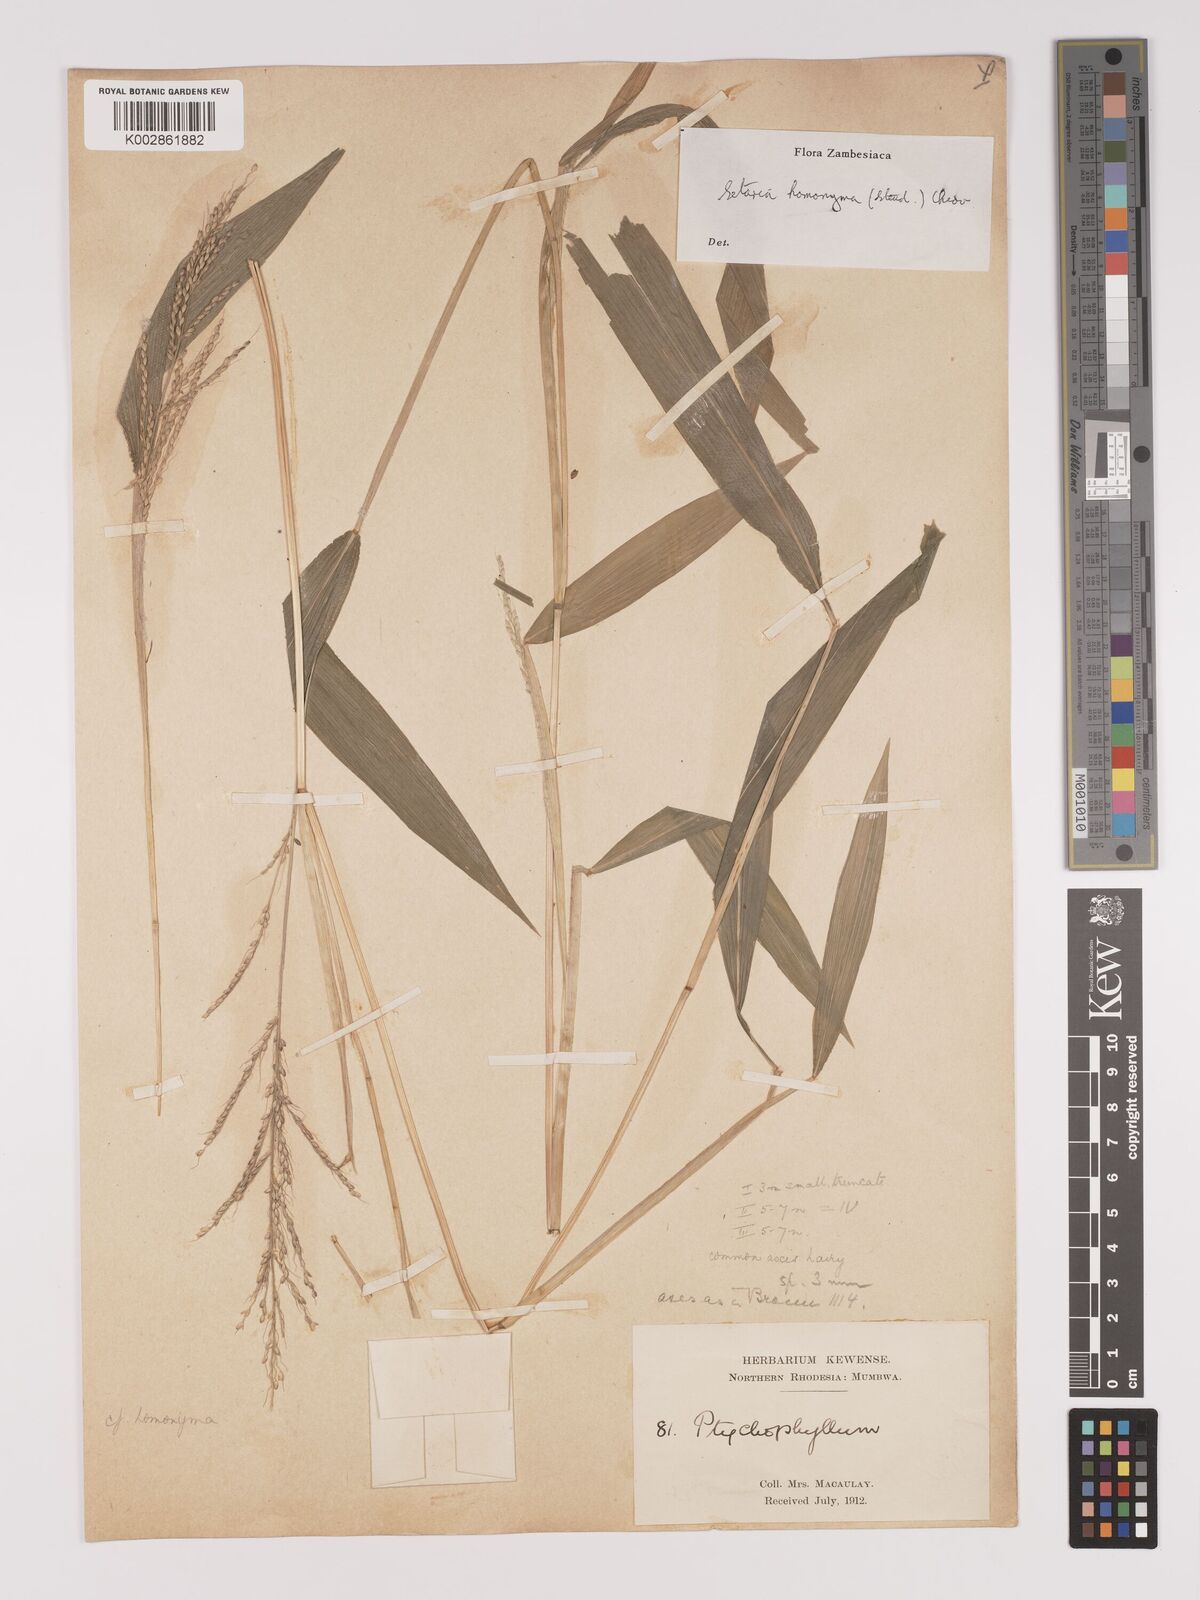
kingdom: Plantae
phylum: Tracheophyta
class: Liliopsida
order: Poales
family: Poaceae
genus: Setaria
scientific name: Setaria homonyma
